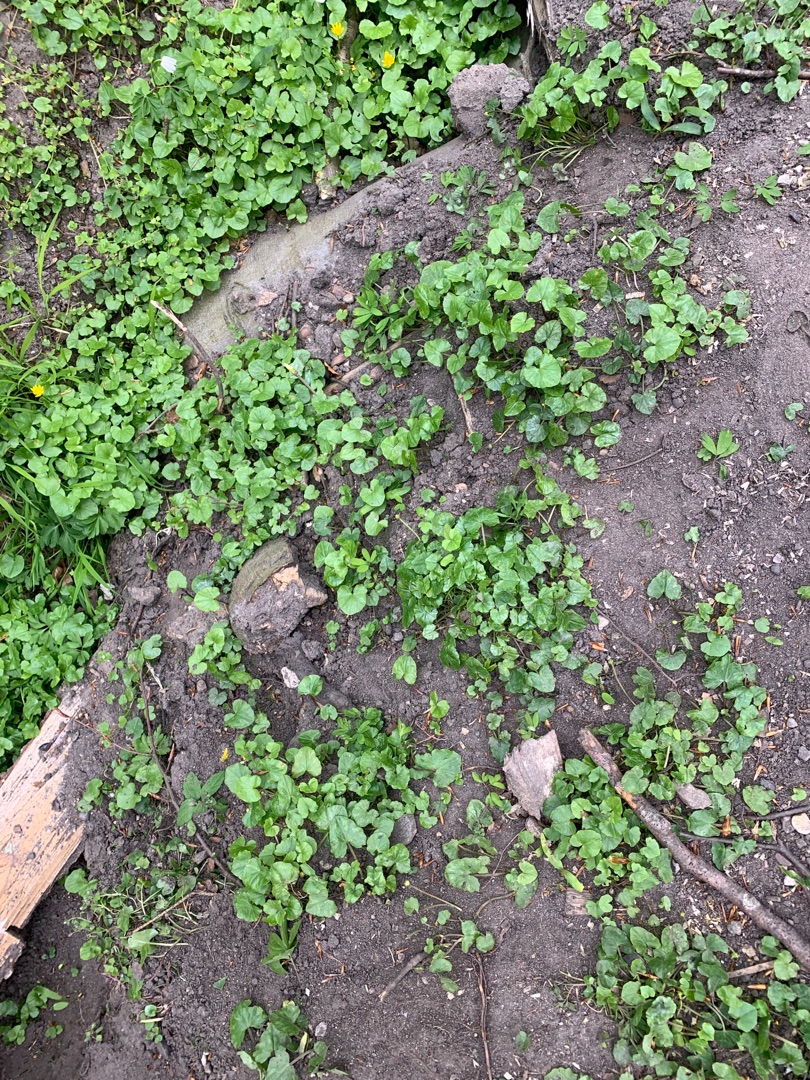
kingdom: Plantae
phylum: Tracheophyta
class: Magnoliopsida
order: Ranunculales
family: Ranunculaceae
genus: Ficaria
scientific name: Ficaria verna
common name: Vorterod
